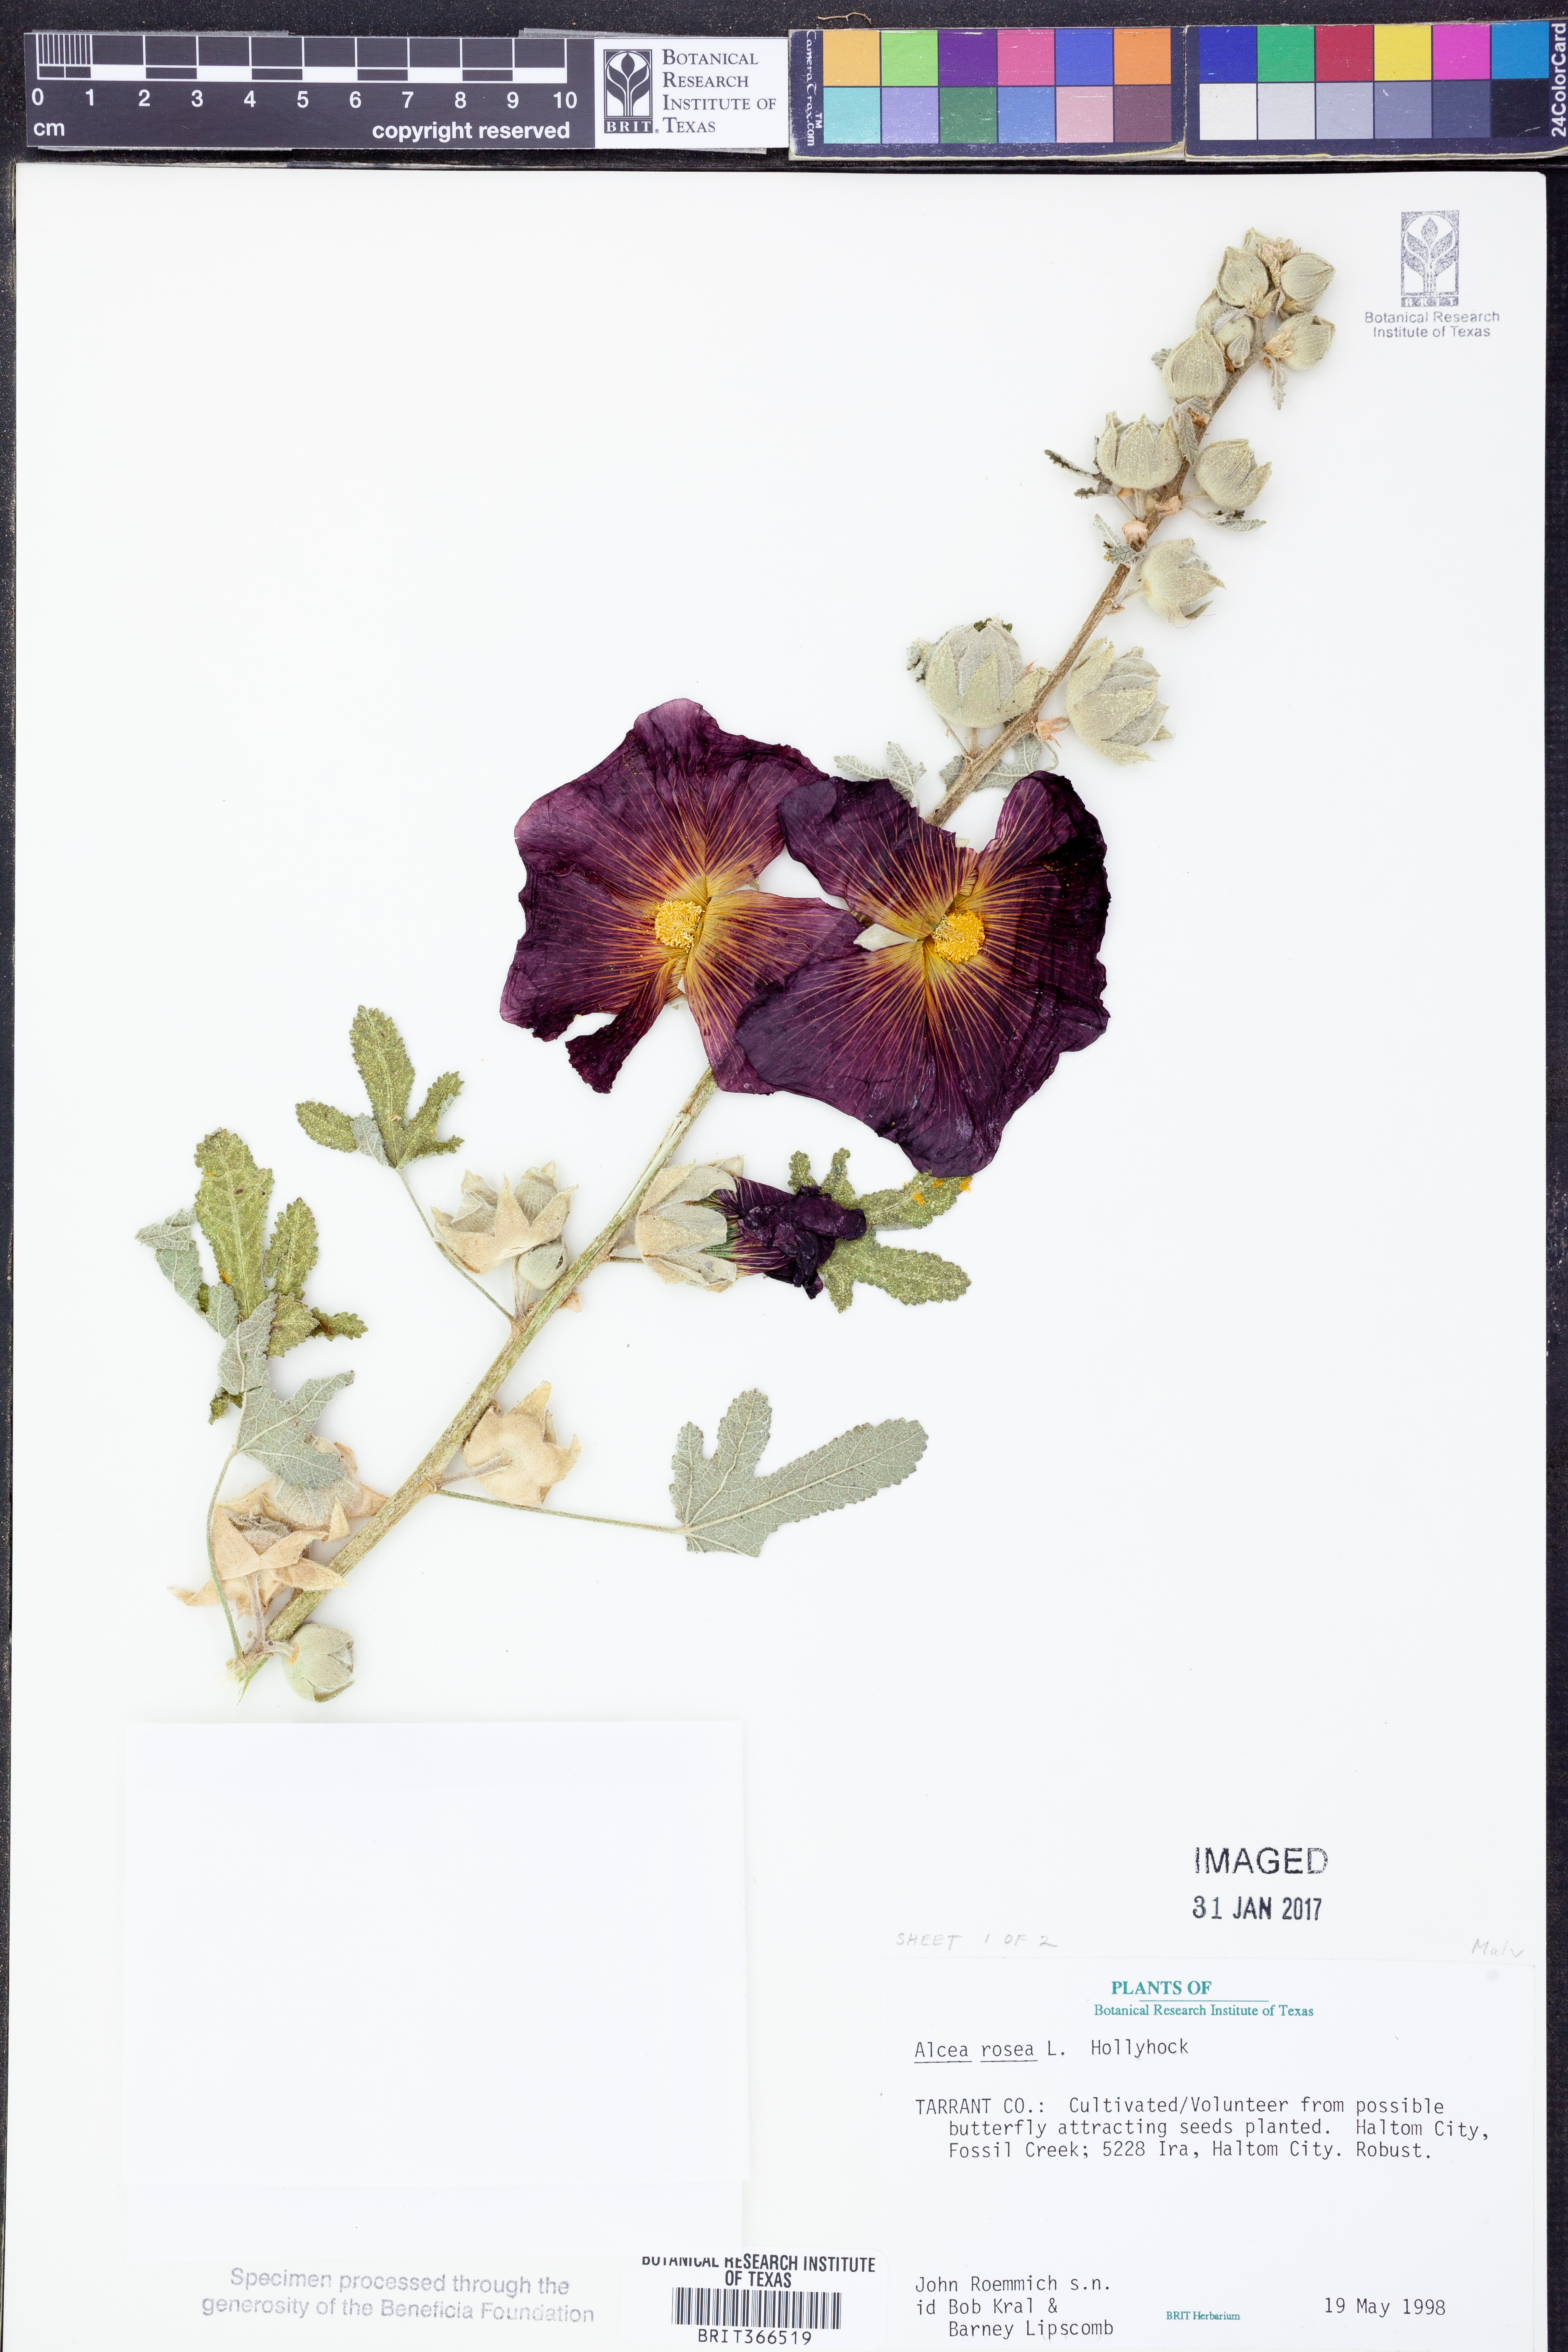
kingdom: Plantae
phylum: Tracheophyta
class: Magnoliopsida
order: Malvales
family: Malvaceae
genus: Alcea
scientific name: Alcea rosea
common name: Hollyhock
